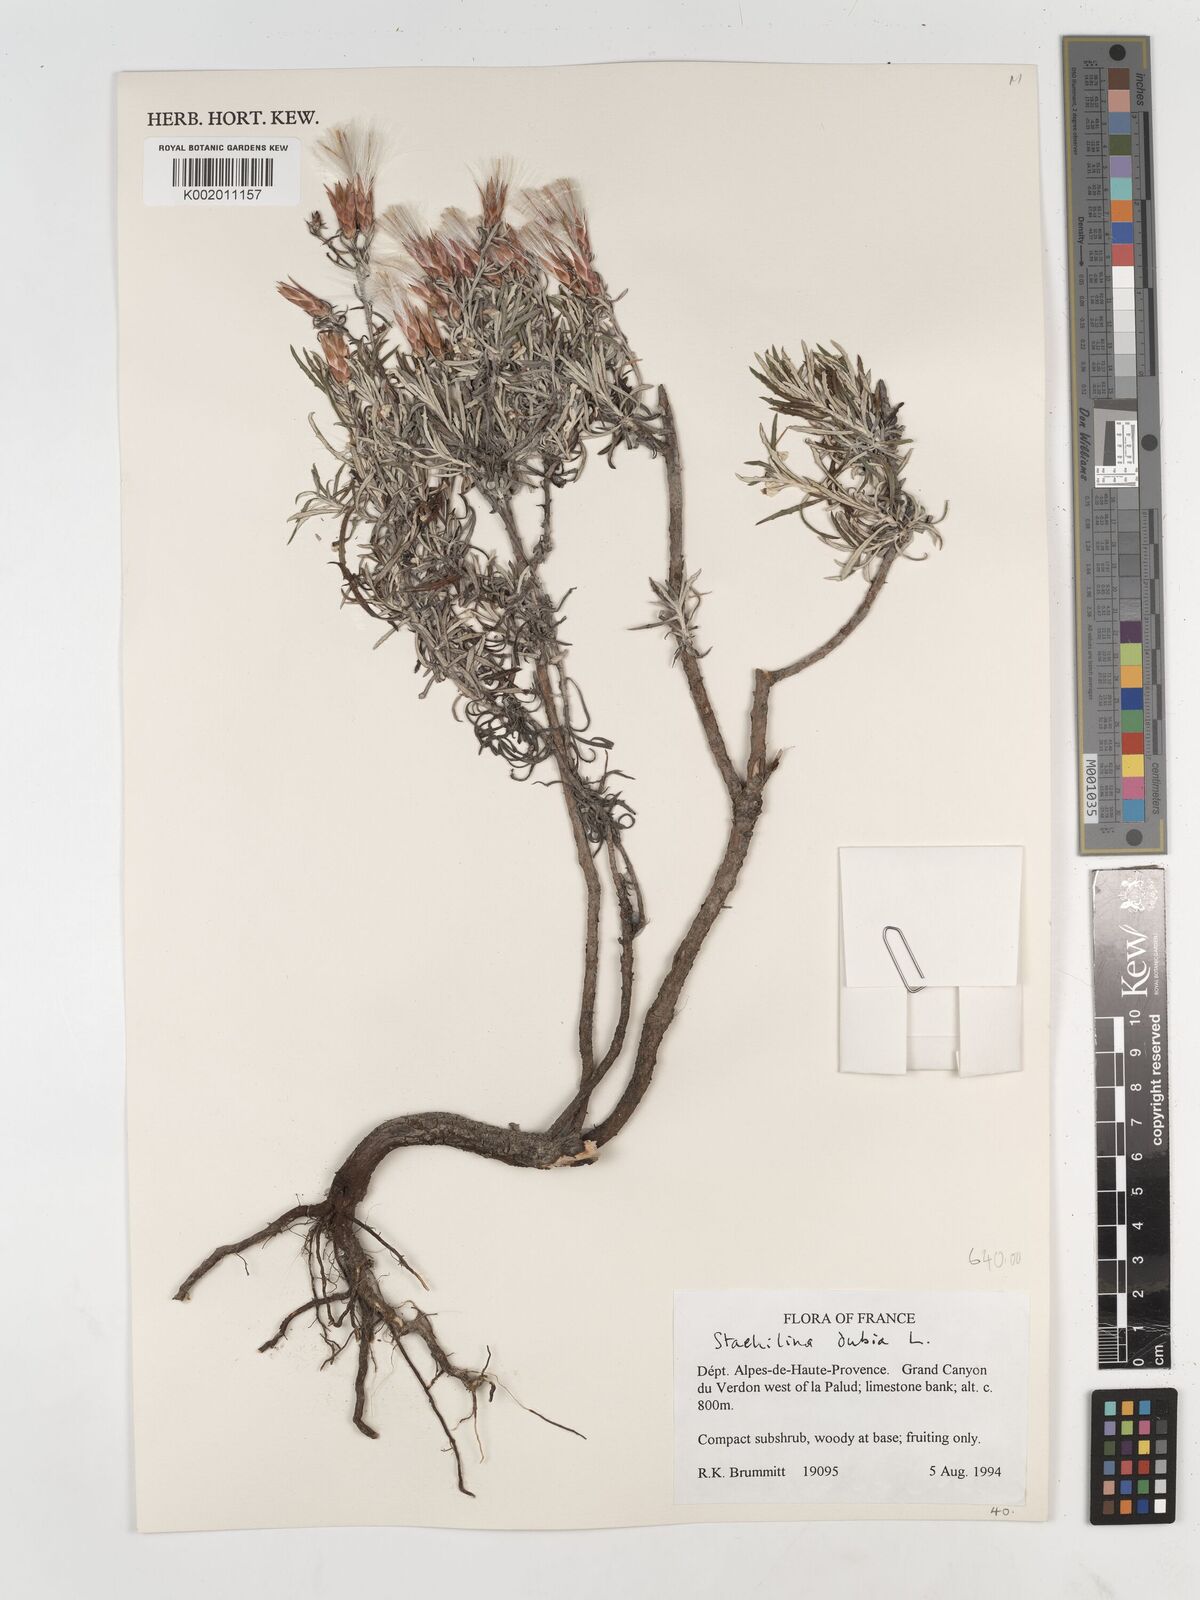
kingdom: Plantae
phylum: Tracheophyta
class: Magnoliopsida
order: Asterales
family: Asteraceae
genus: Staehelina
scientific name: Staehelina dubia
